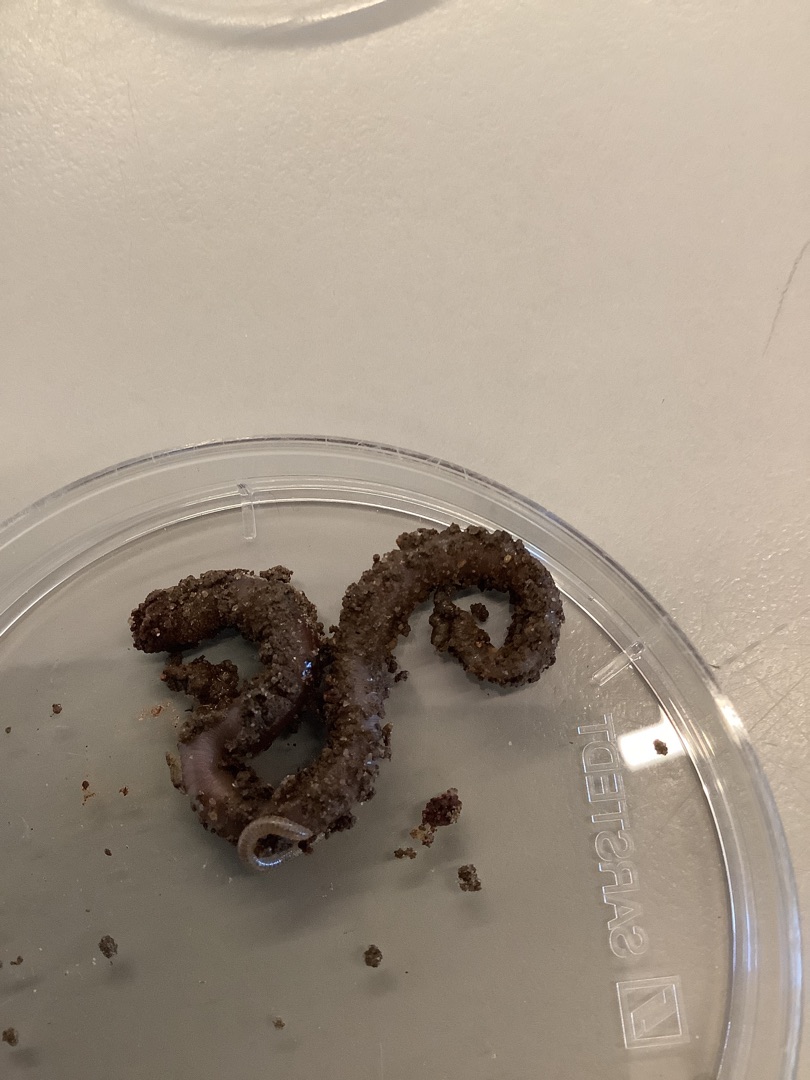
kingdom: Animalia
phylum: Annelida
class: Clitellata
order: Crassiclitellata
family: Lumbricidae
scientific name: Lumbricidae
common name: Regnorme
